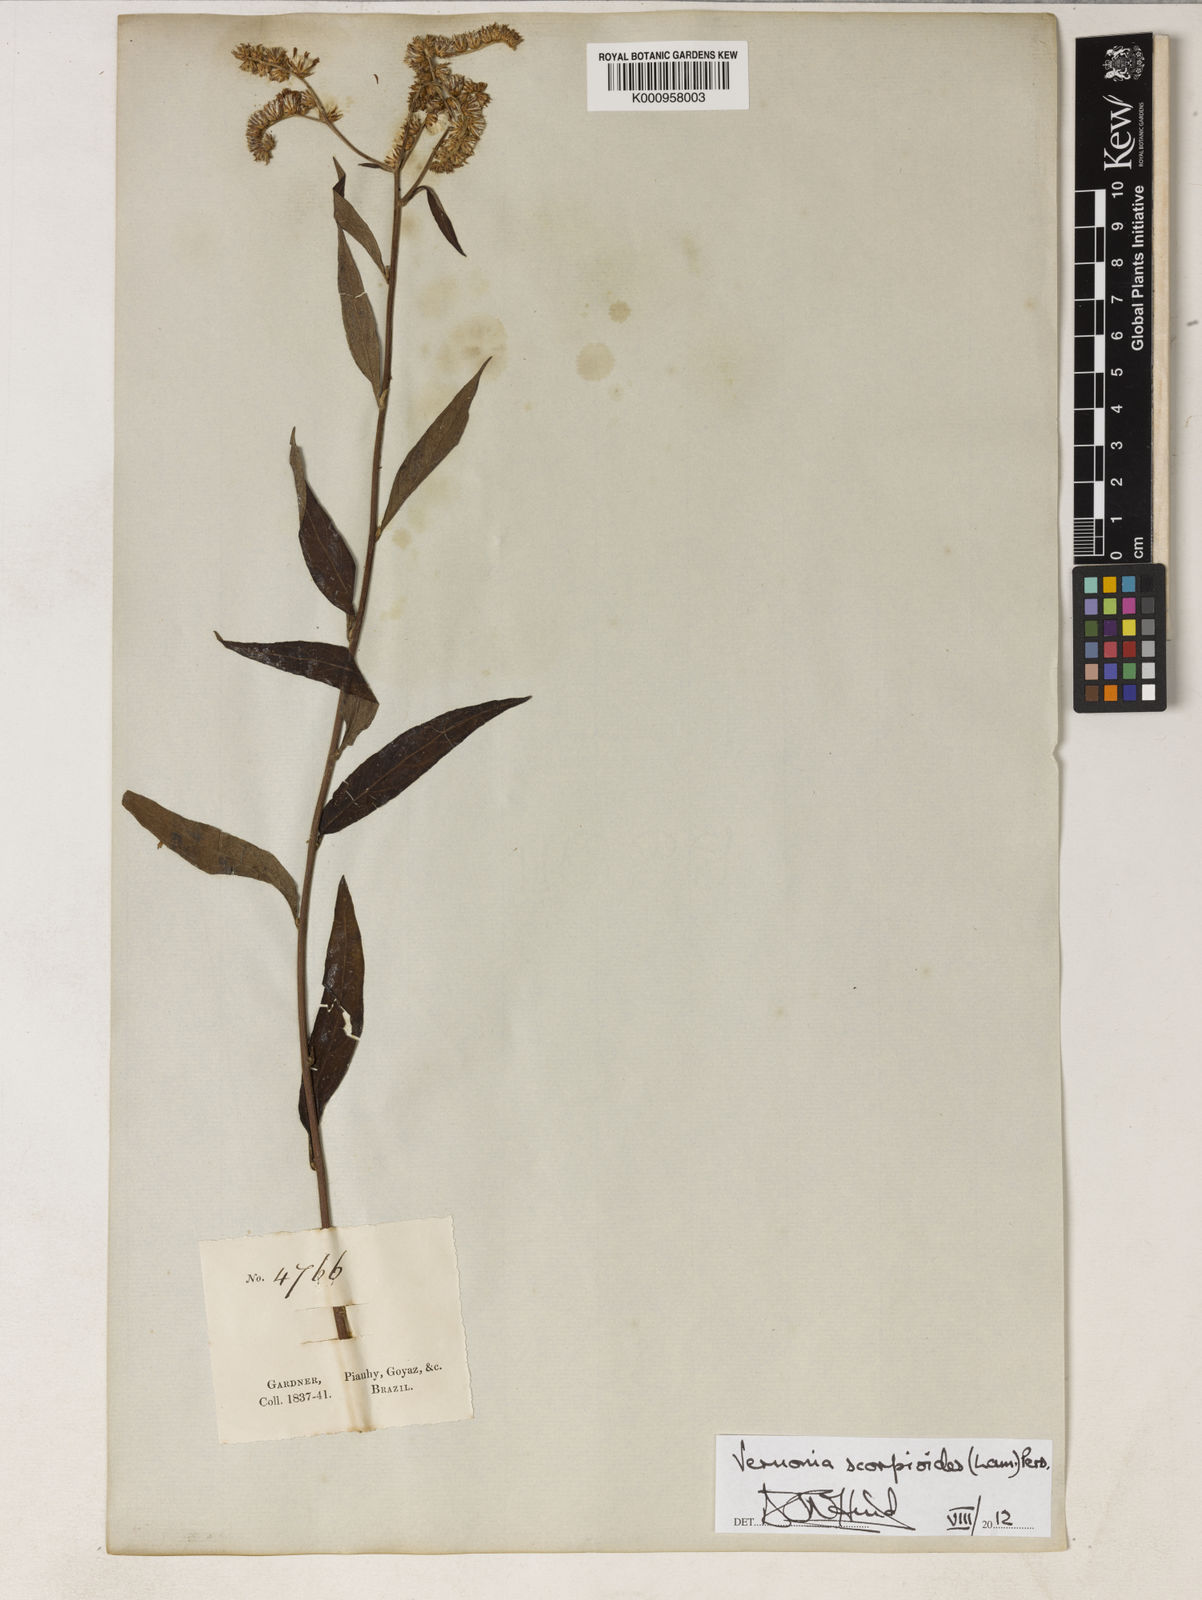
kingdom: Plantae
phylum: Tracheophyta
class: Magnoliopsida
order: Asterales
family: Asteraceae
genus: Cyrtocymura
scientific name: Cyrtocymura scorpioides
